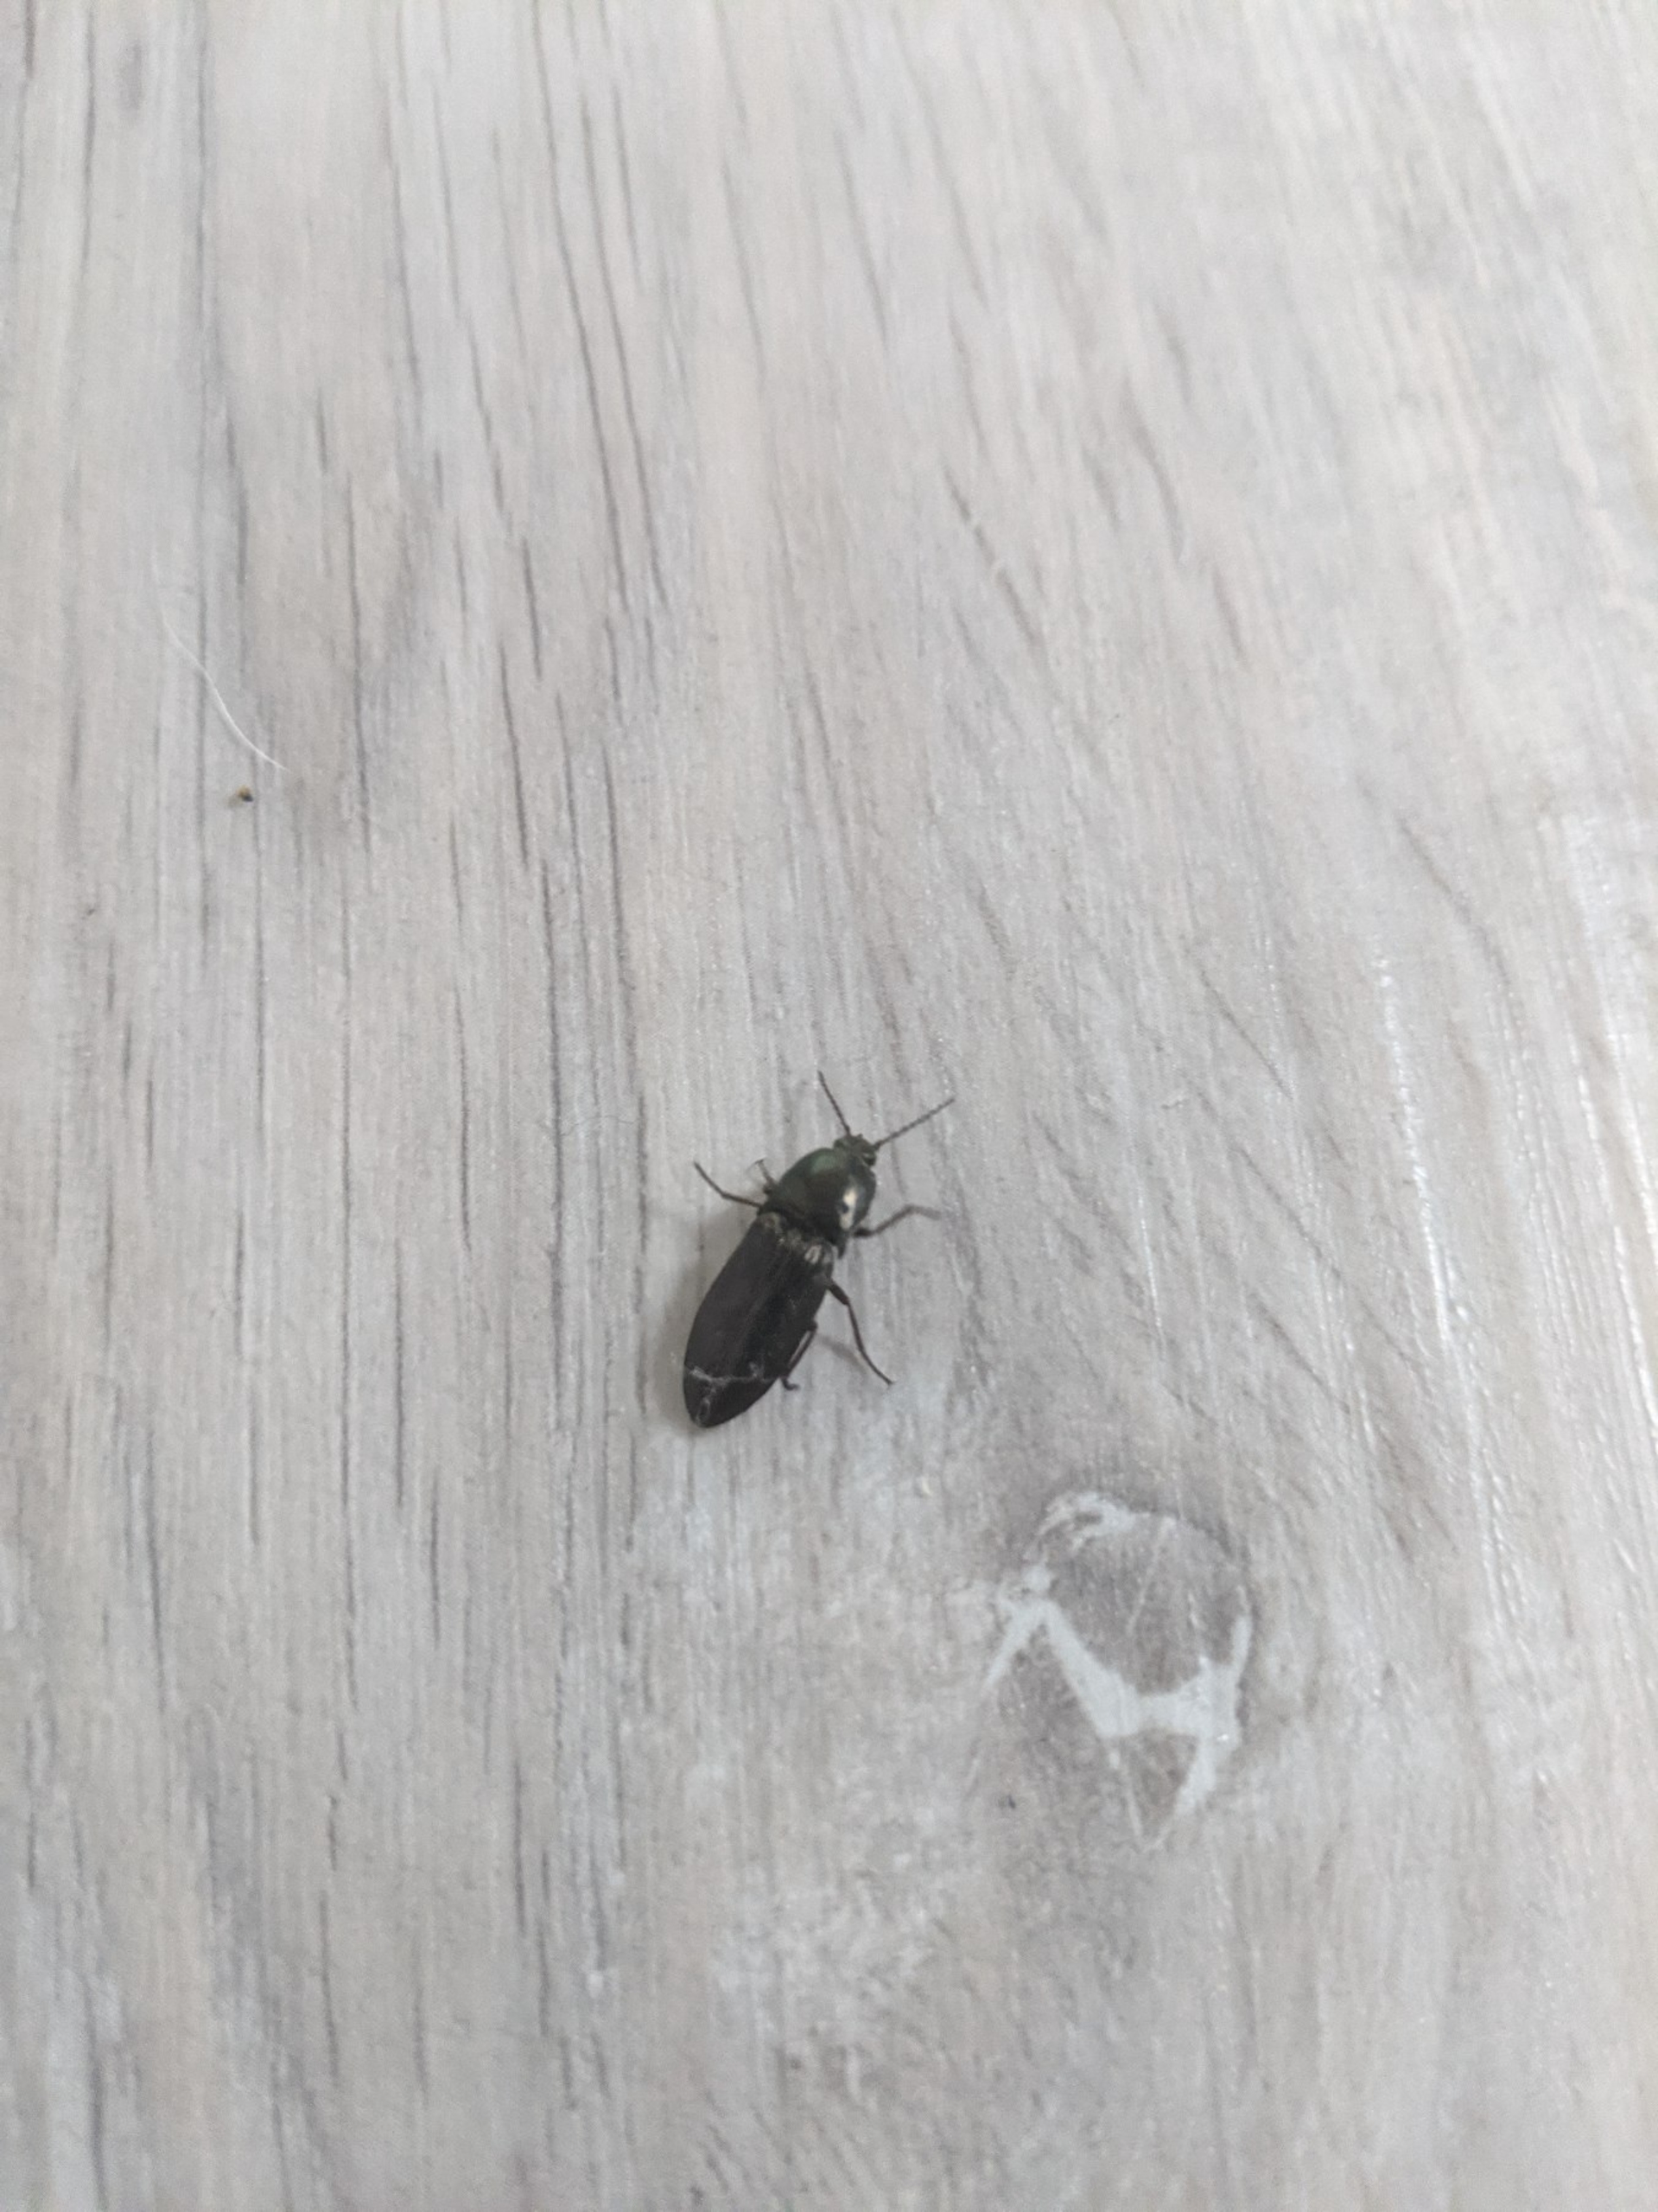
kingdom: Animalia
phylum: Arthropoda
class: Insecta
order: Coleoptera
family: Elateridae
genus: Selatosomus
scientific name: Selatosomus aeneus
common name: Kobbersmælder
